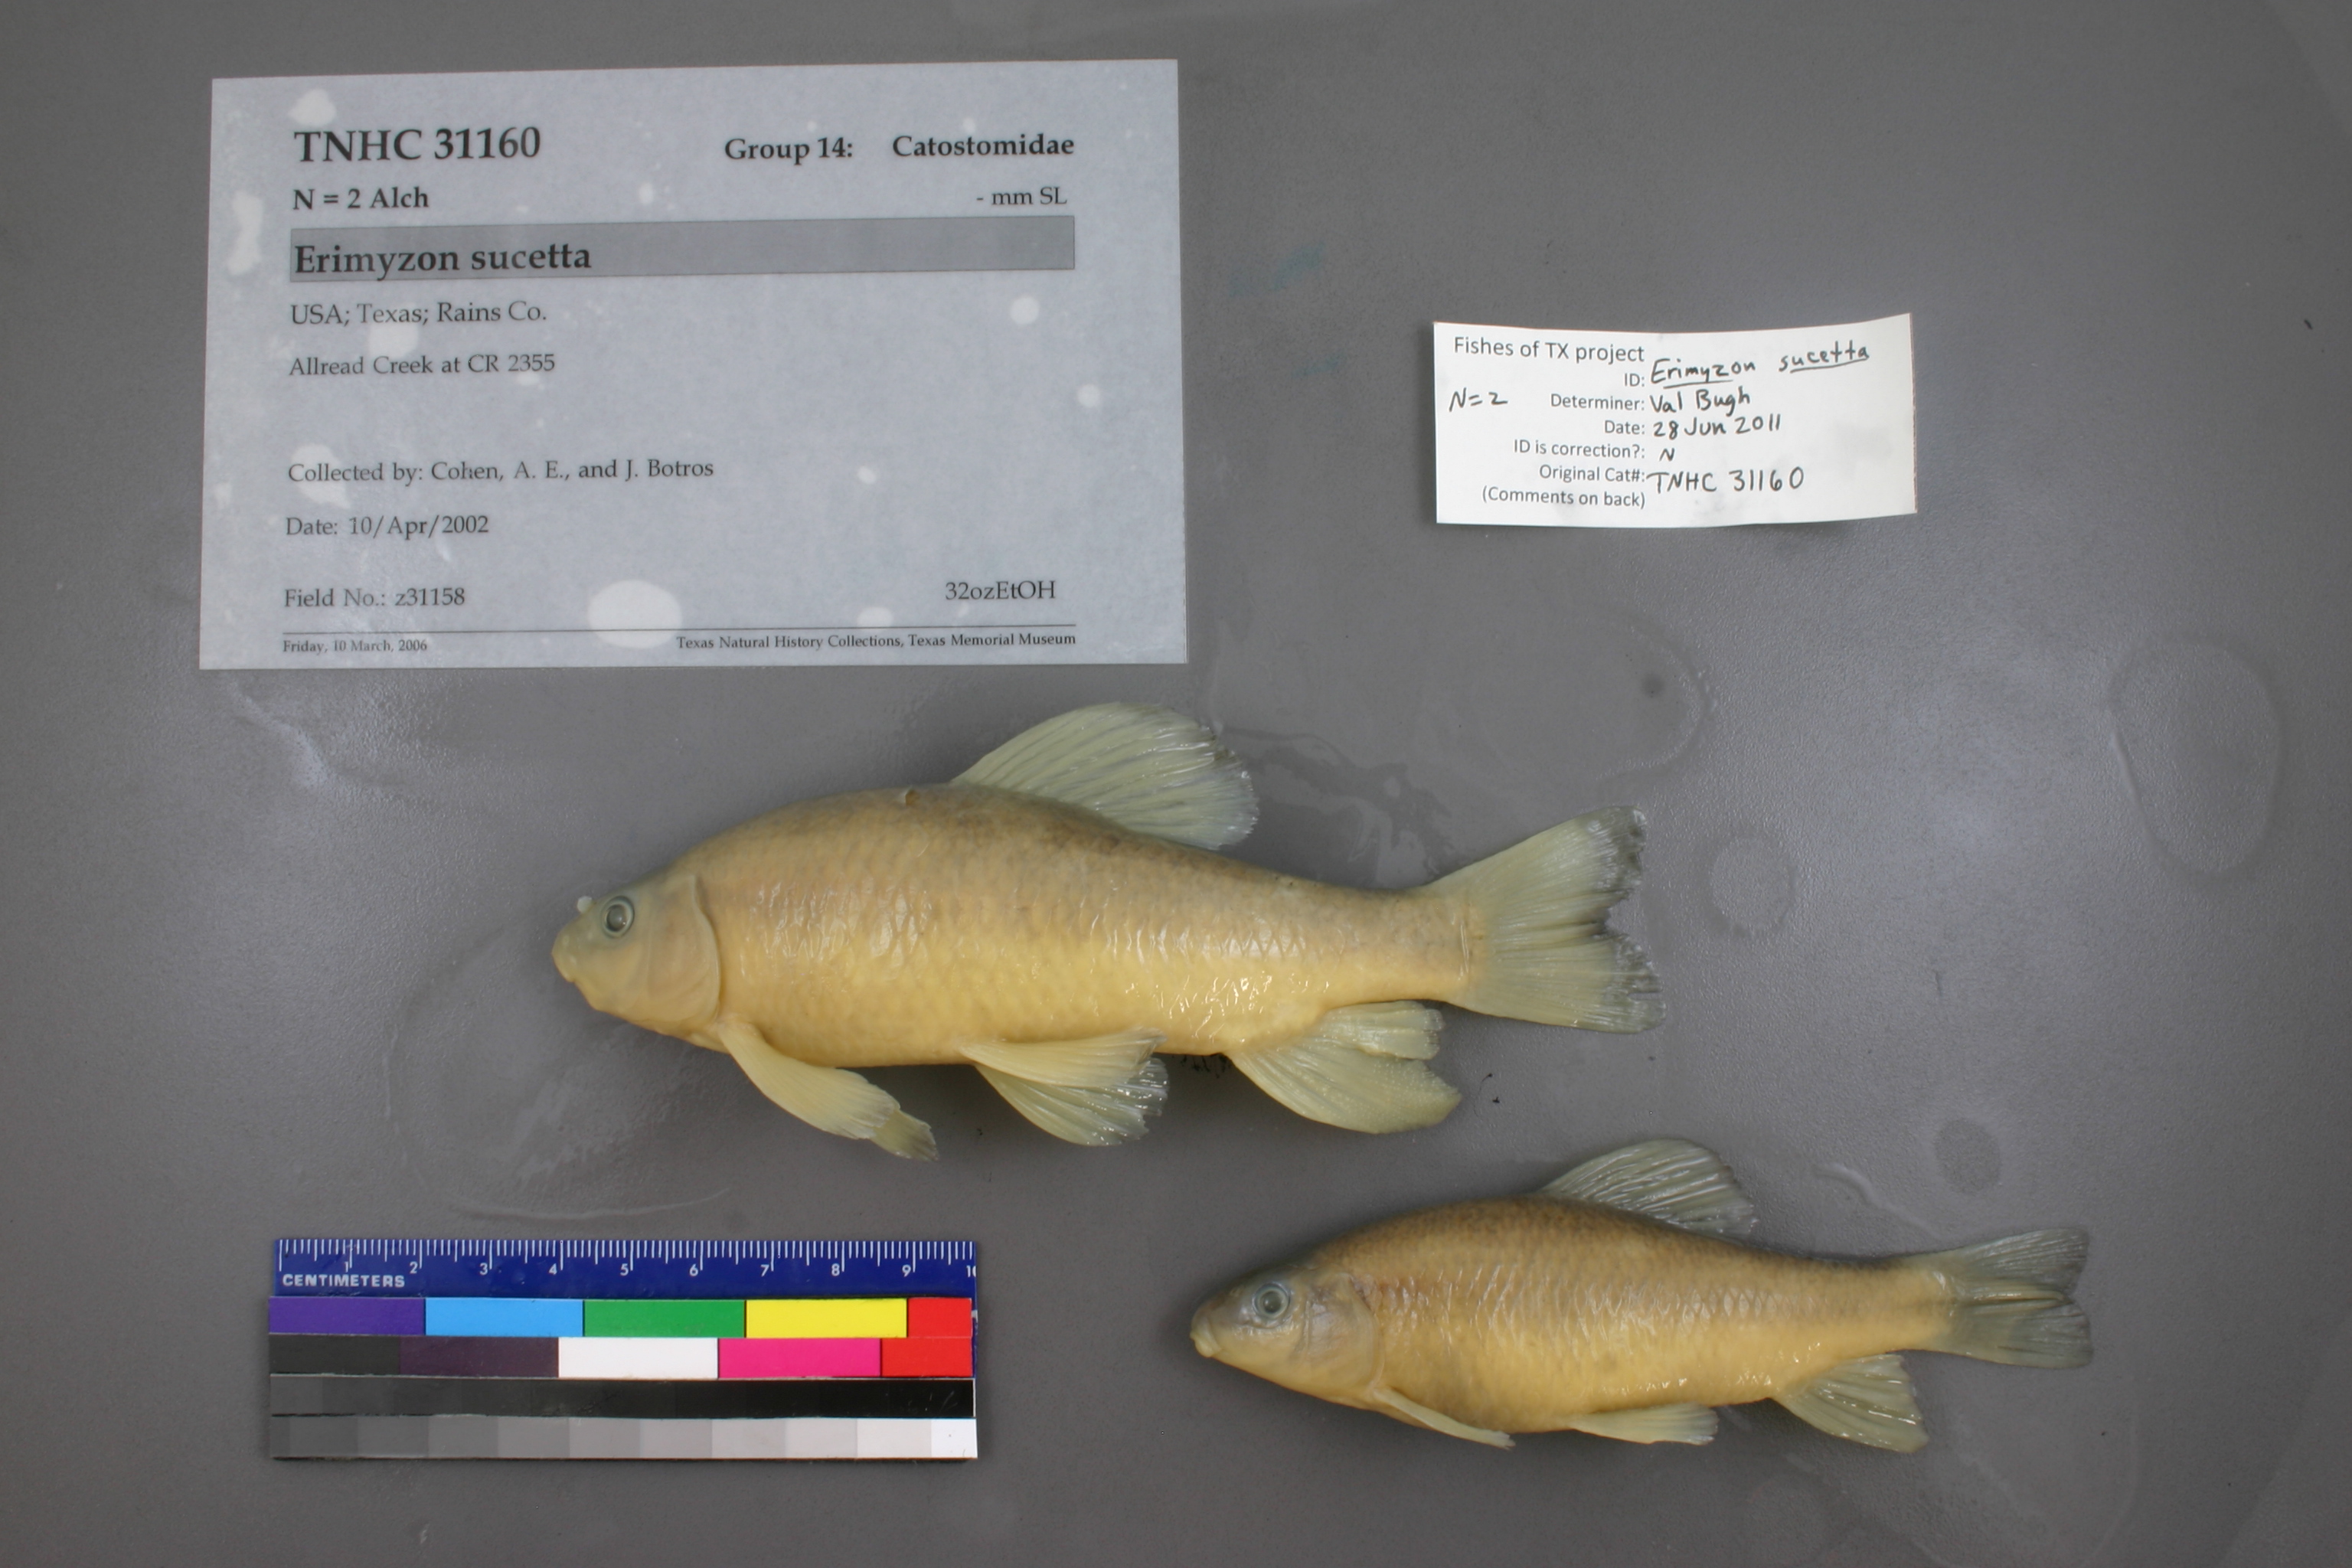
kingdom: Animalia
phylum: Chordata
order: Cypriniformes
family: Catostomidae
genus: Erimyzon
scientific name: Erimyzon sucetta
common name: Lake chubsucker
